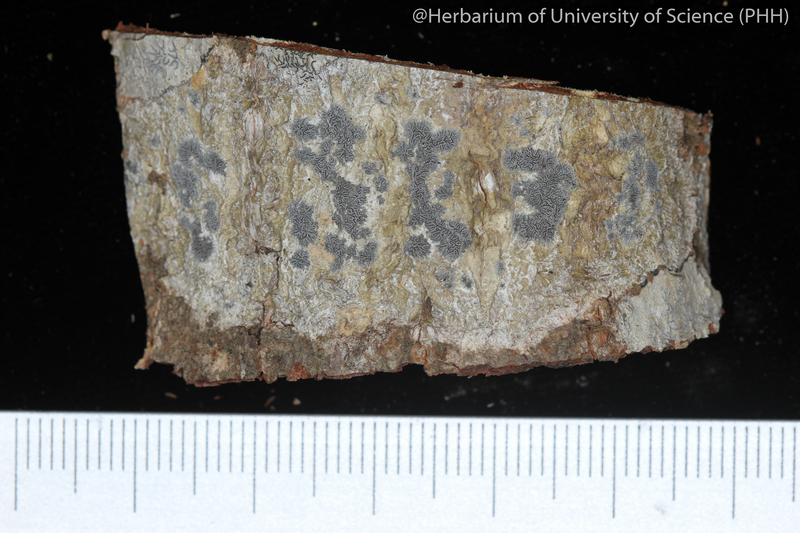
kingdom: Fungi
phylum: Ascomycota
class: Lecanoromycetes
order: Ostropales
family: Graphidaceae
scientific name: Graphidaceae
